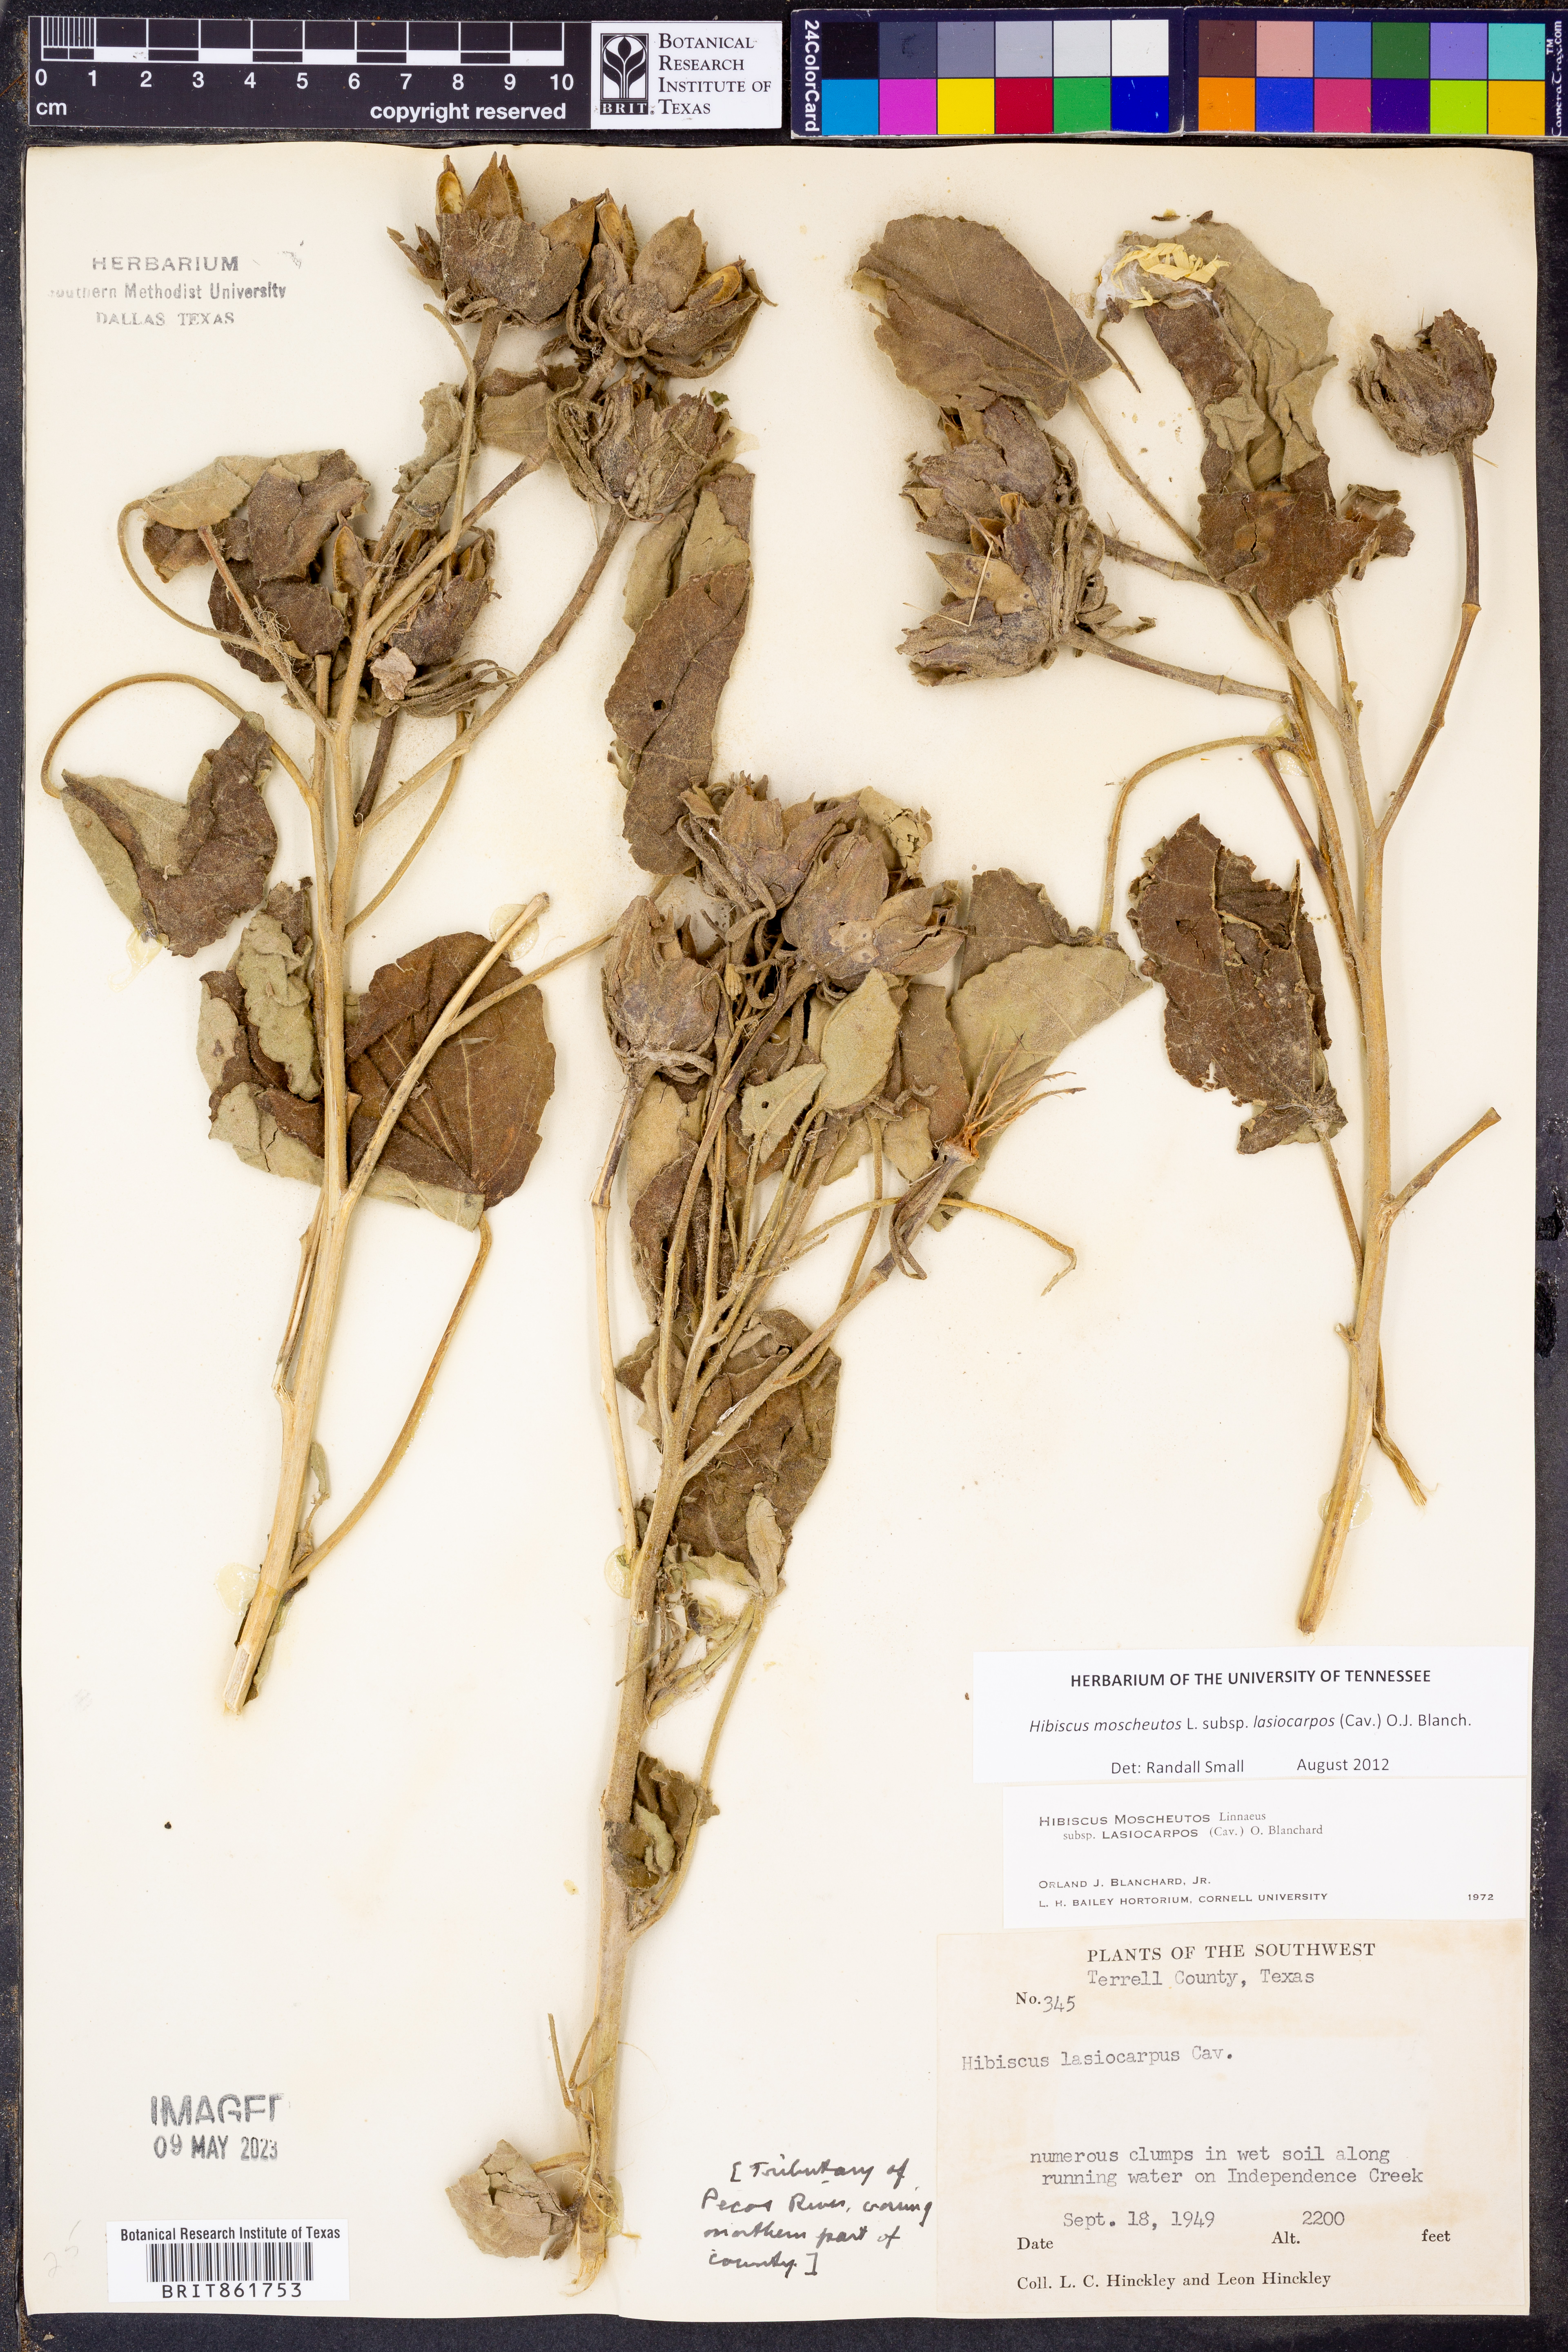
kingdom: Plantae
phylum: Tracheophyta
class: Magnoliopsida
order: Malvales
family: Malvaceae
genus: Hibiscus
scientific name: Hibiscus moscheutos
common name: Common rose-mallow
